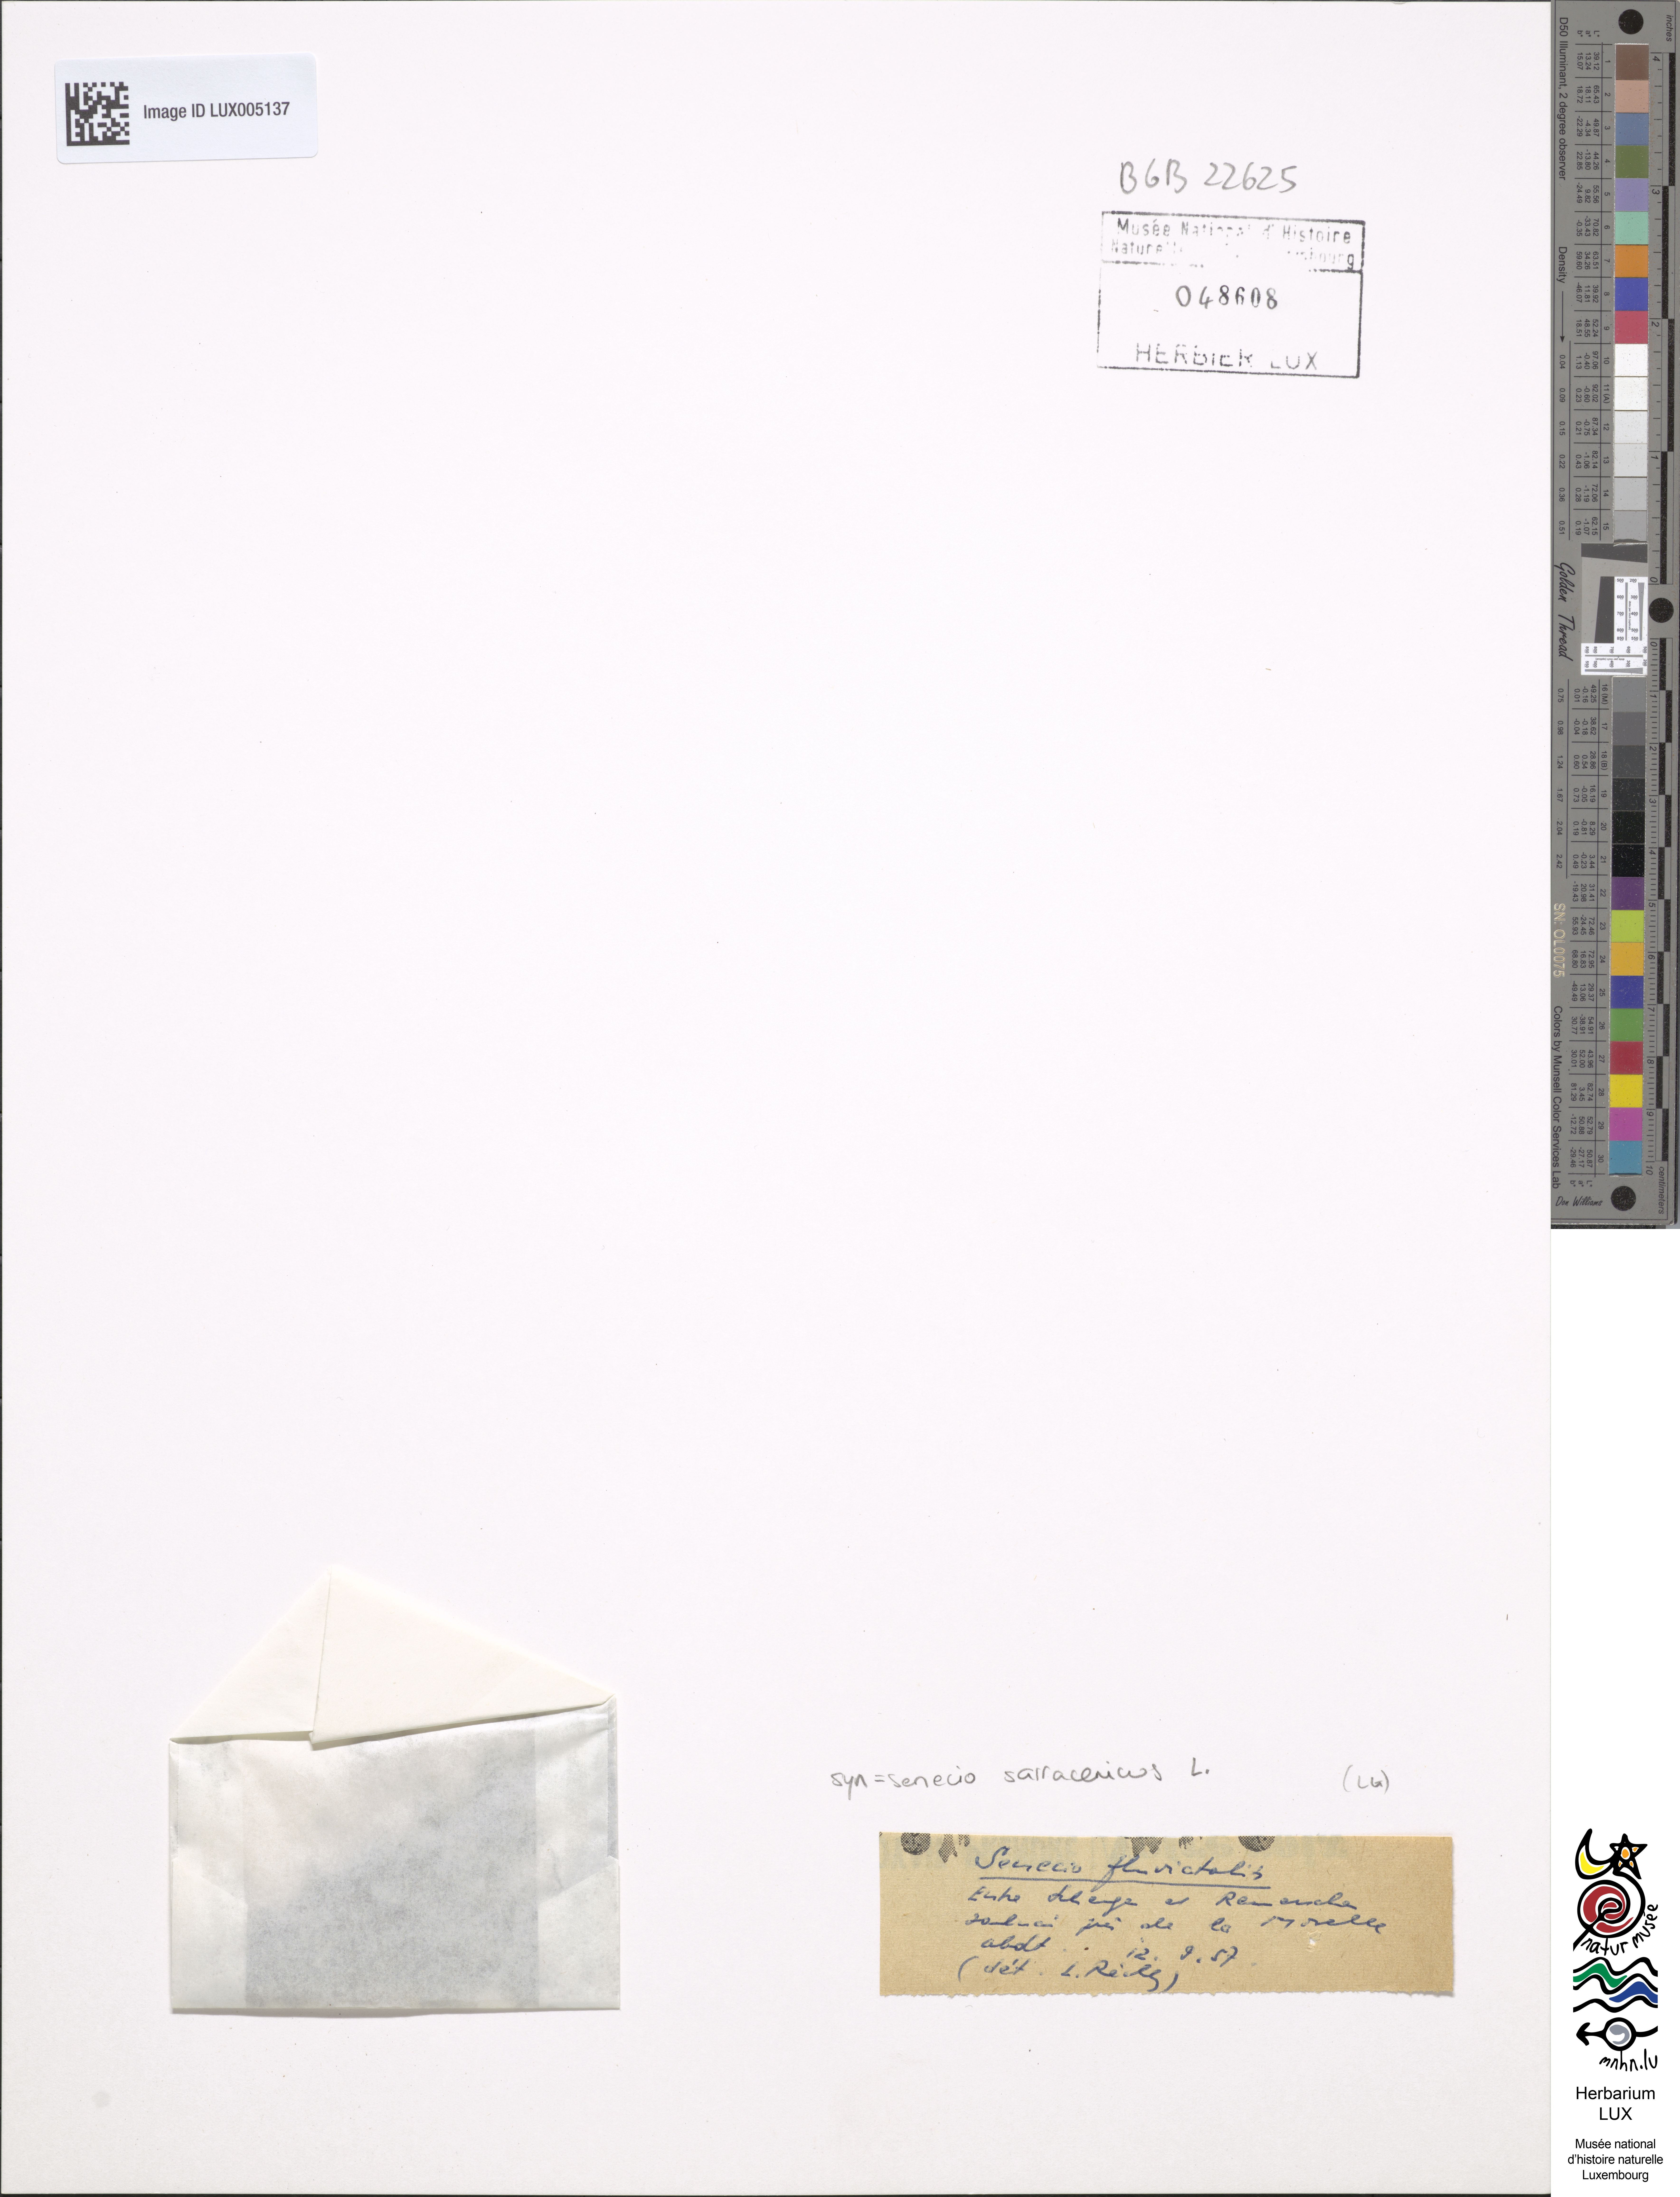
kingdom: Plantae
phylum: Tracheophyta
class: Magnoliopsida
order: Asterales
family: Asteraceae
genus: Senecio
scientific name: Senecio sarracenicus
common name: Broad-leaved ragwort
